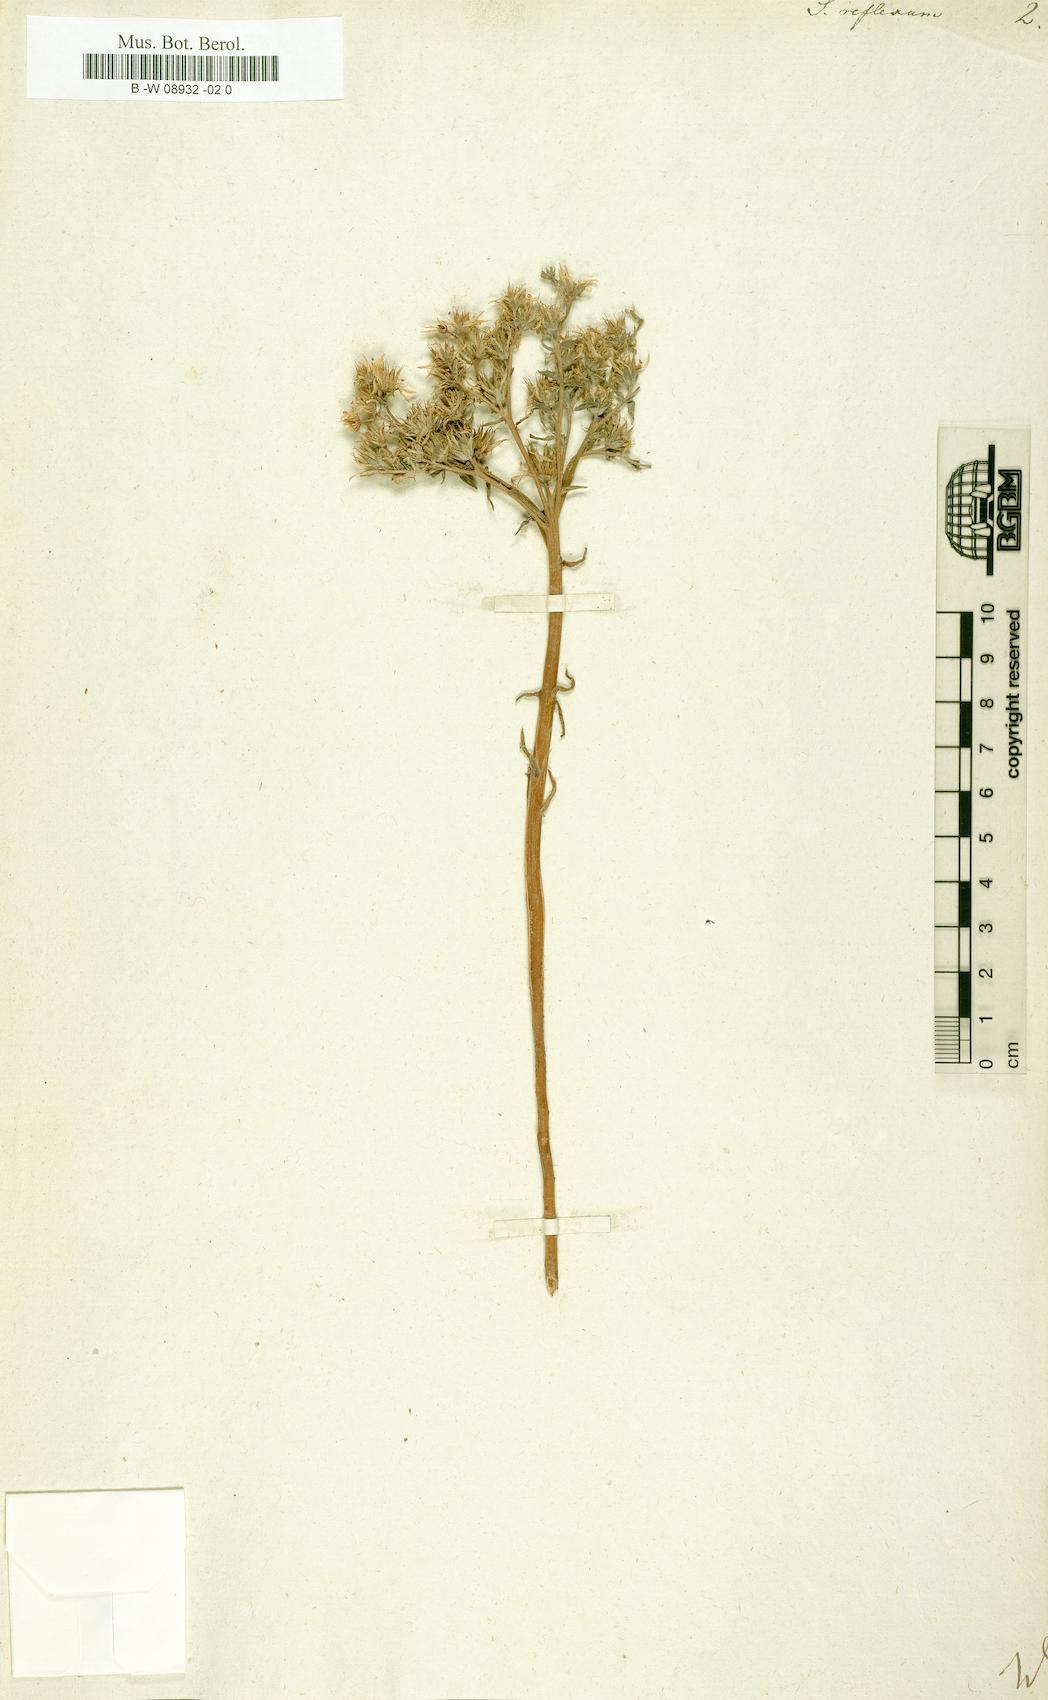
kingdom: Plantae
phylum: Tracheophyta
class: Magnoliopsida
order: Saxifragales
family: Crassulaceae
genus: Petrosedum
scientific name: Petrosedum
